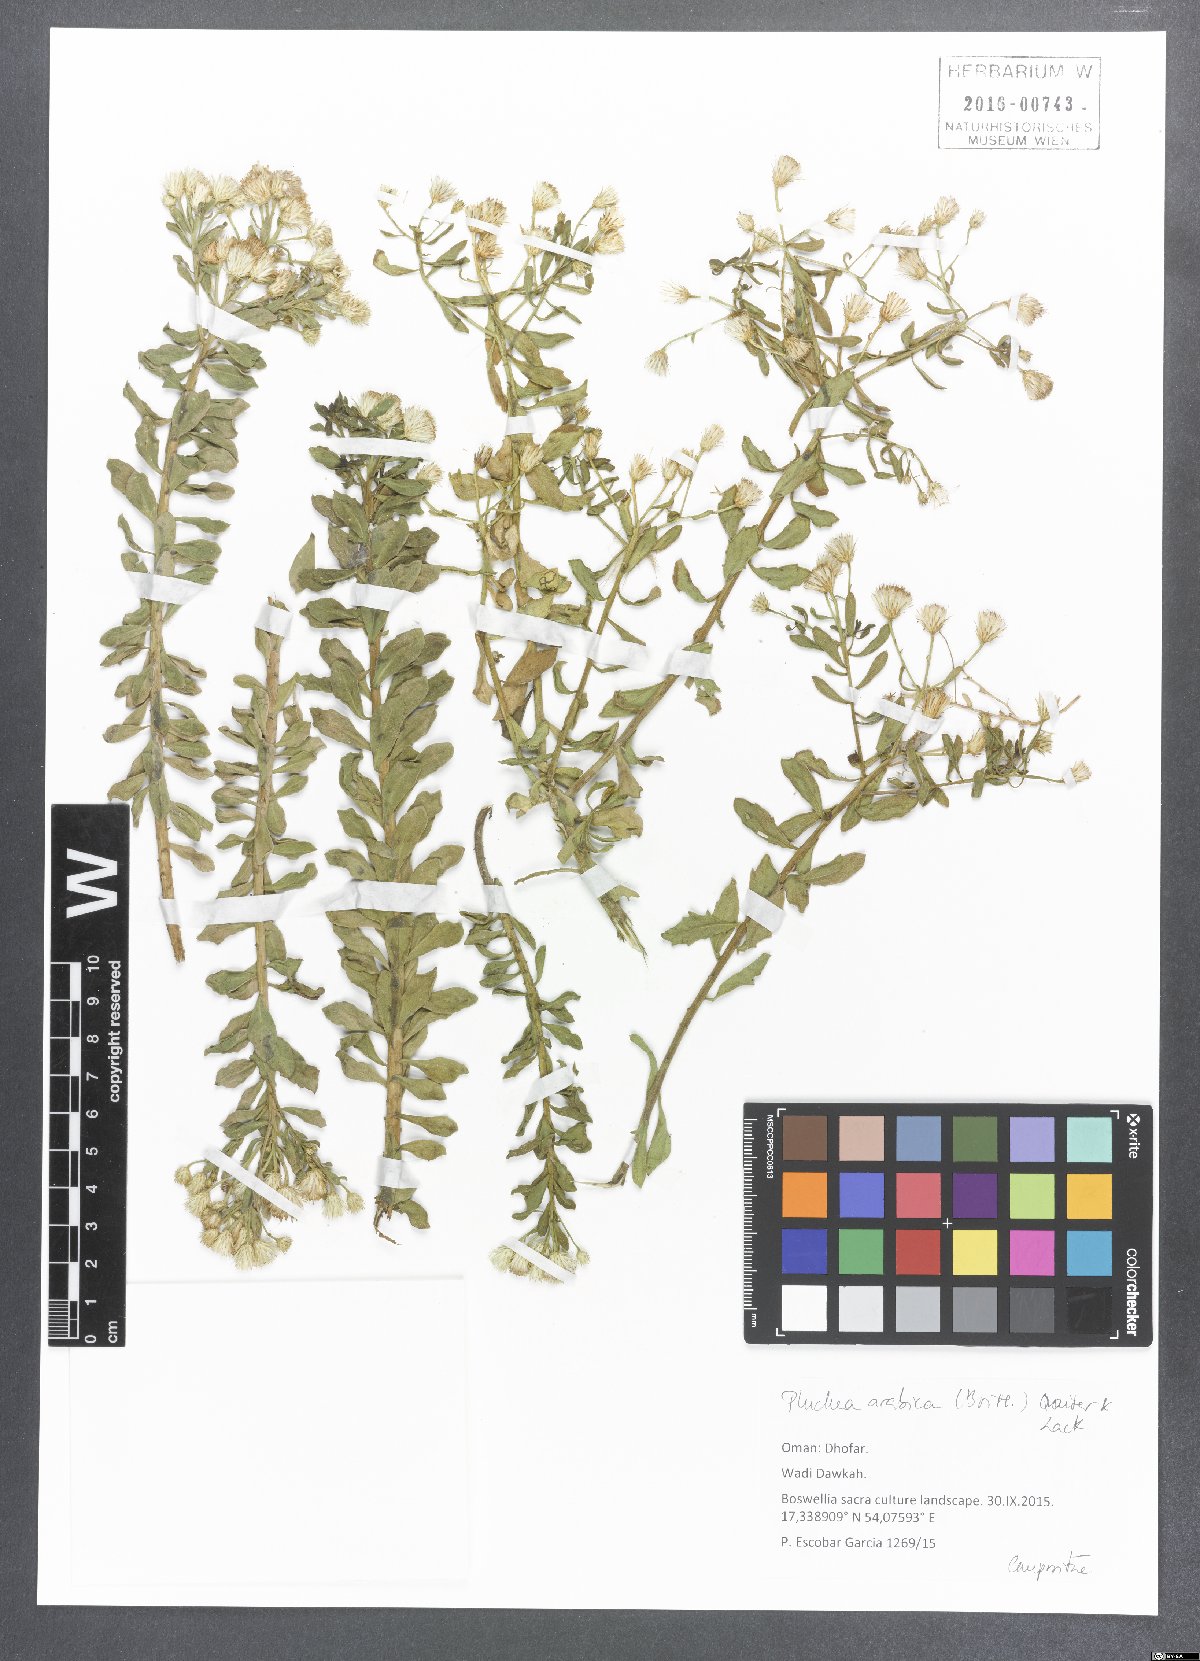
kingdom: Plantae
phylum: Tracheophyta
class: Magnoliopsida
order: Asterales
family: Asteraceae
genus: Pluchea
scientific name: Pluchea arabica
